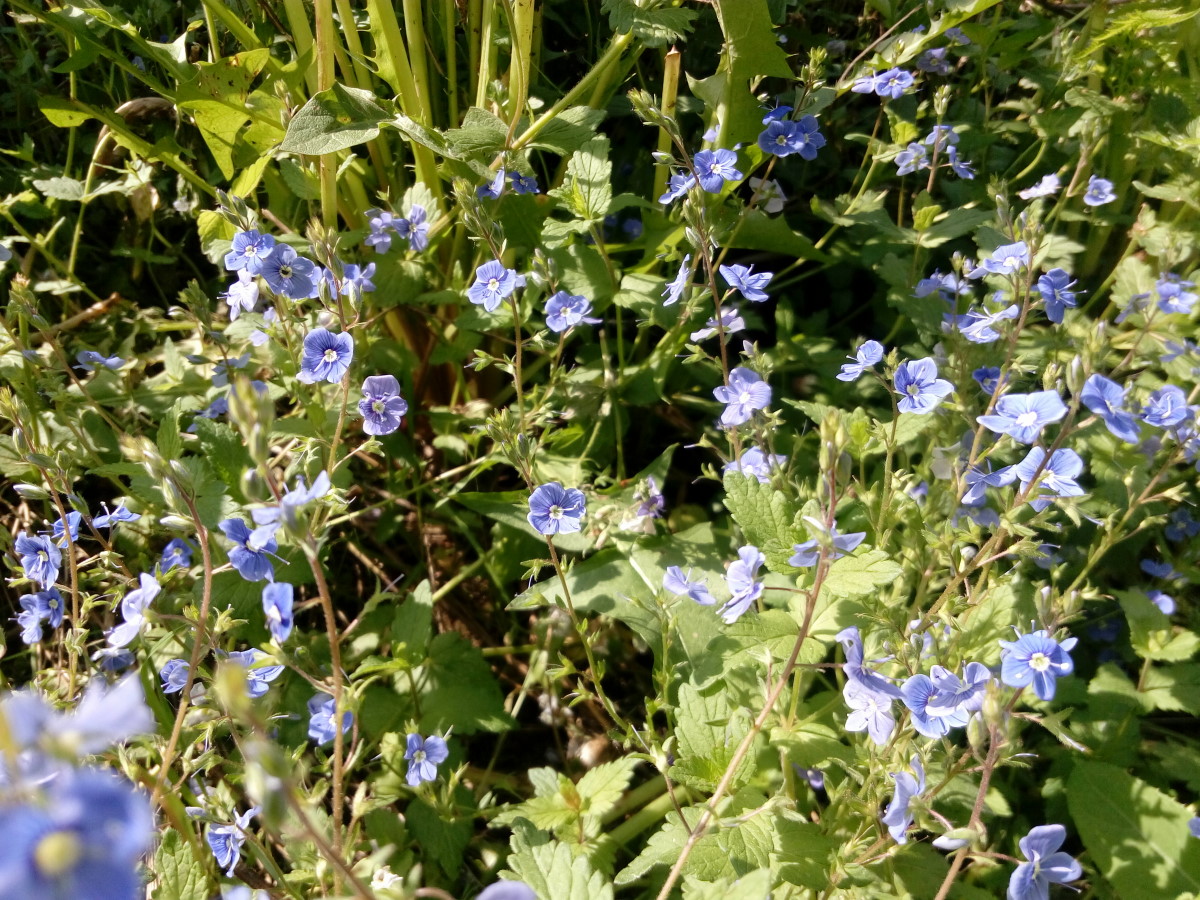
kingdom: Plantae
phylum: Tracheophyta
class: Magnoliopsida
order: Lamiales
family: Plantaginaceae
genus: Veronica
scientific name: Veronica chamaedrys
